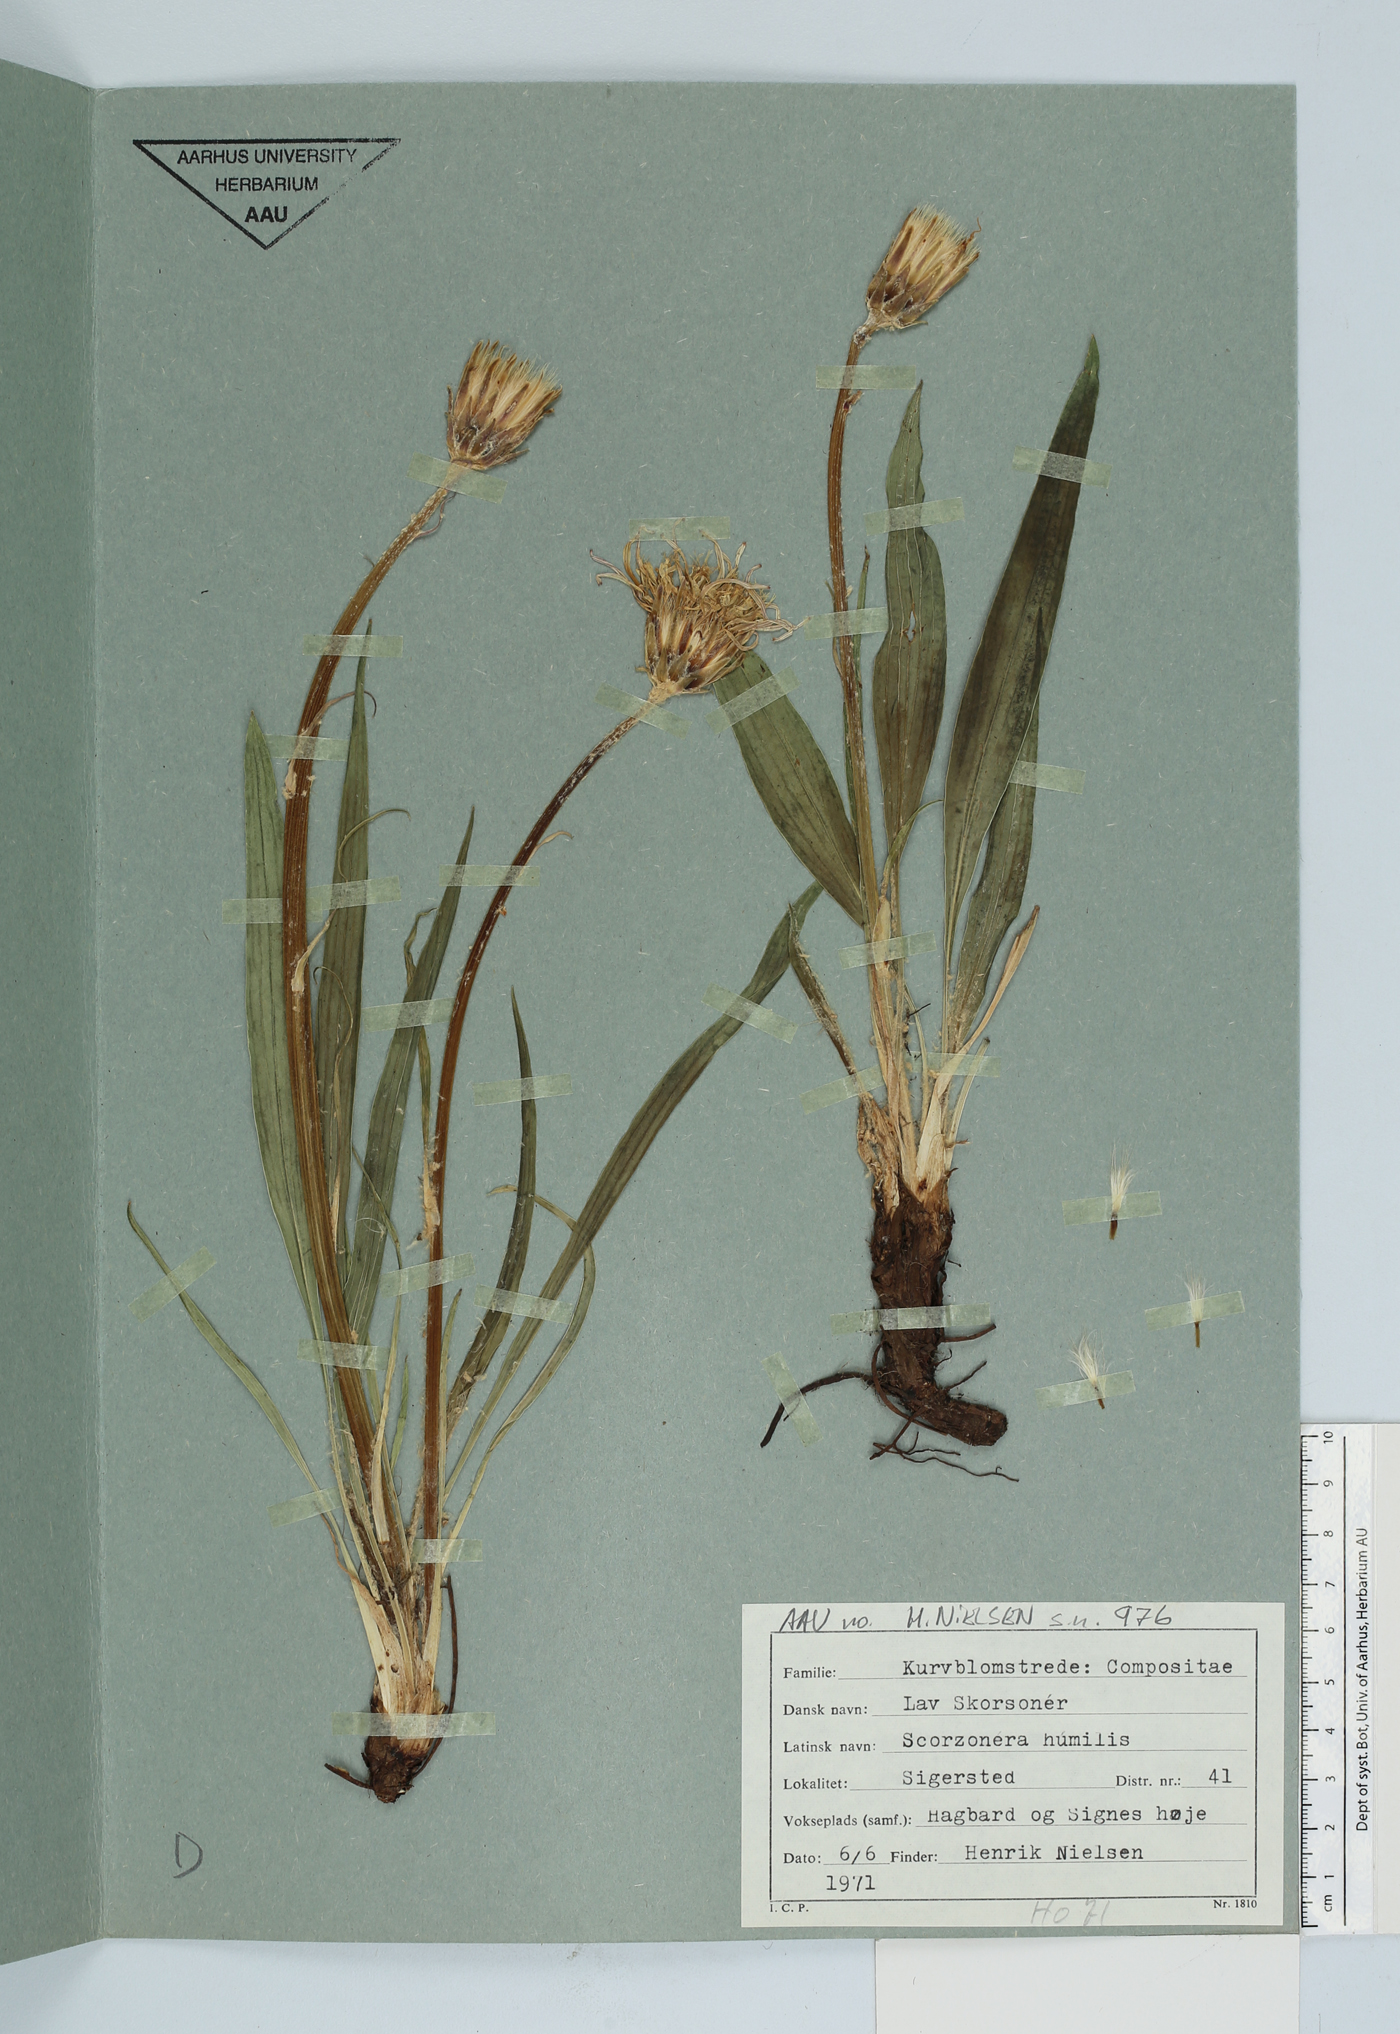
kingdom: Plantae
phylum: Tracheophyta
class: Magnoliopsida
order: Asterales
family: Asteraceae
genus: Scorzonera
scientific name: Scorzonera humilis
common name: Viper's-grass
